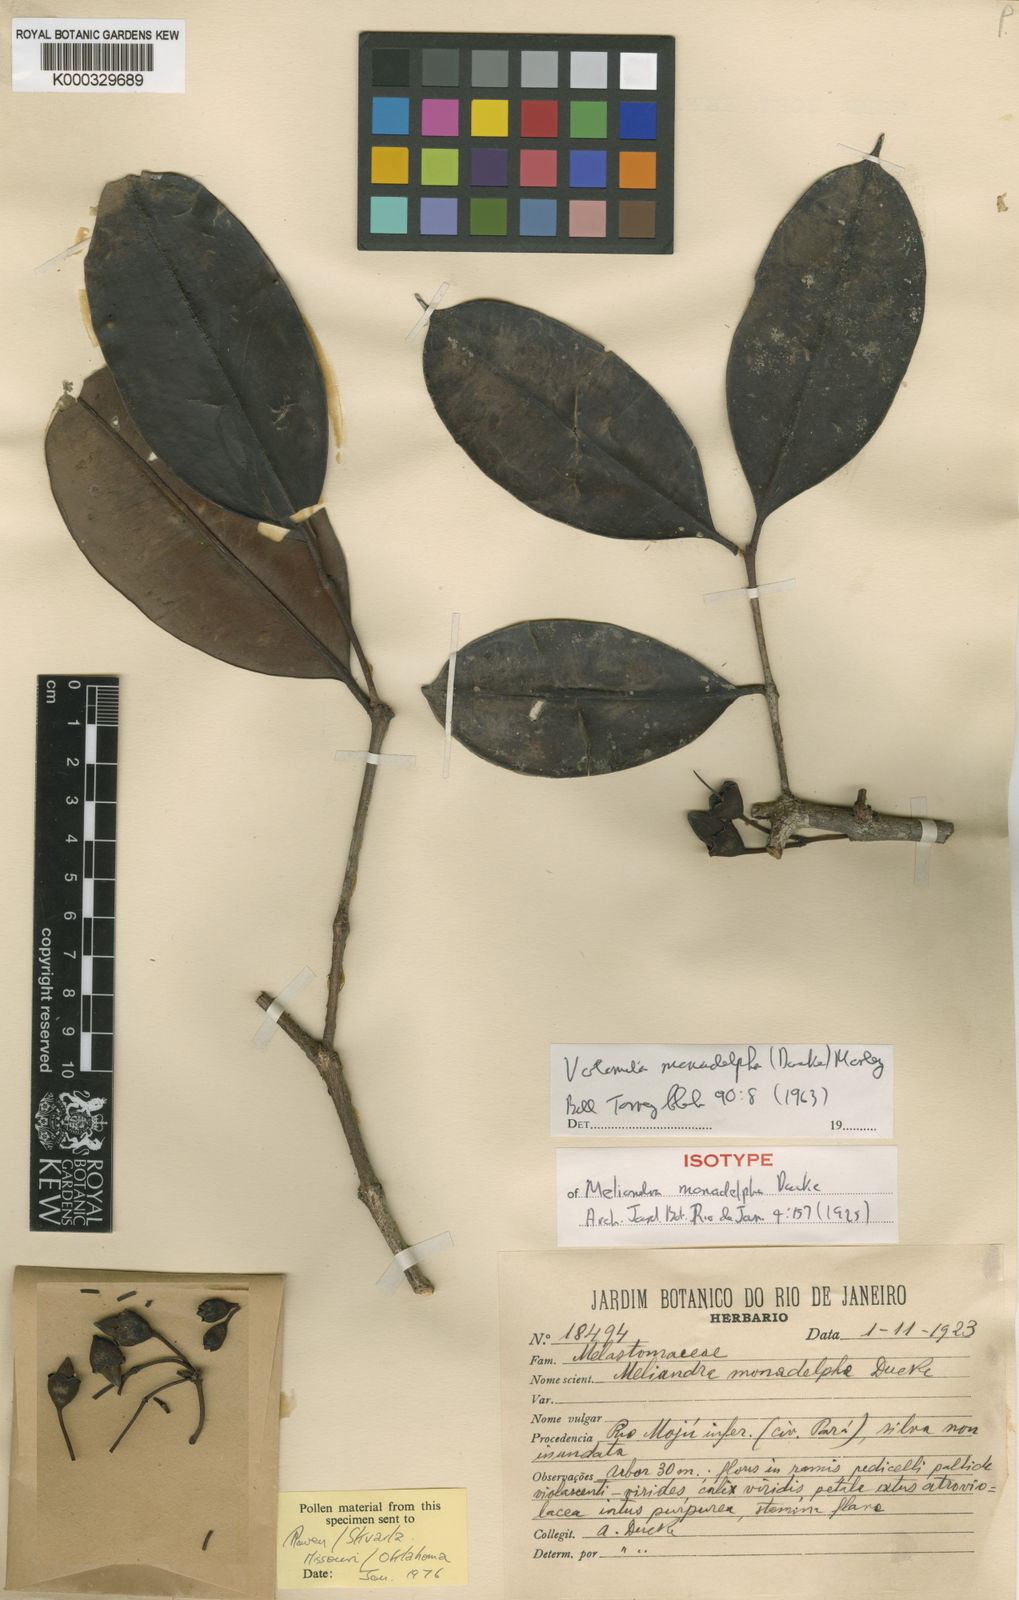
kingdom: Plantae
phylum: Tracheophyta
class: Magnoliopsida
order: Myrtales
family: Melastomataceae
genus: Votomita
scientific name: Votomita monadelpha
